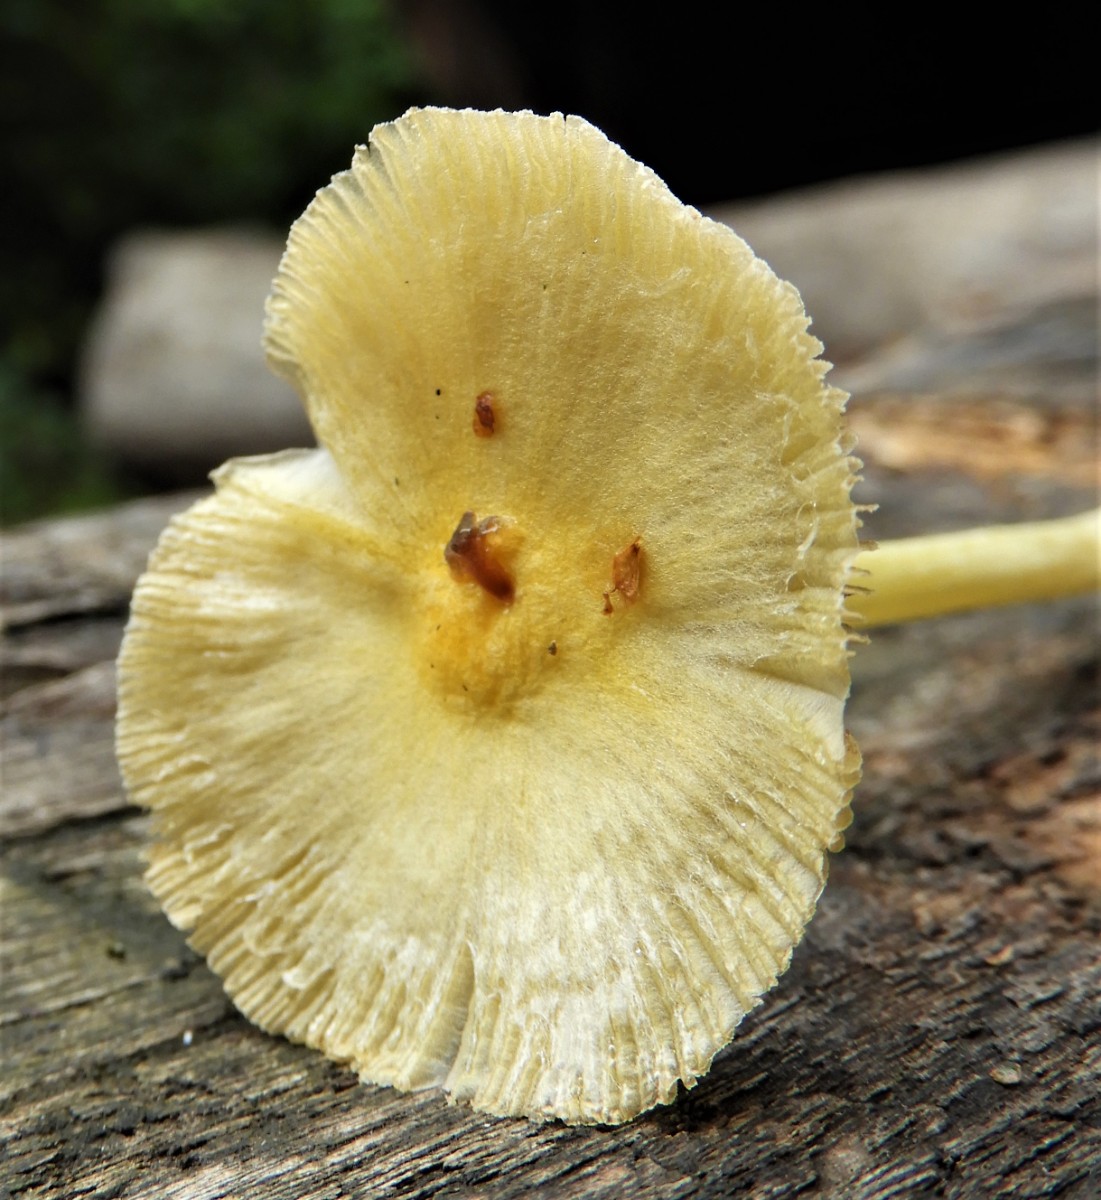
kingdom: Fungi
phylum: Basidiomycota
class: Agaricomycetes
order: Agaricales
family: Bolbitiaceae
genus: Bolbitius
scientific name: Bolbitius titubans
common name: almindelig gulhat
